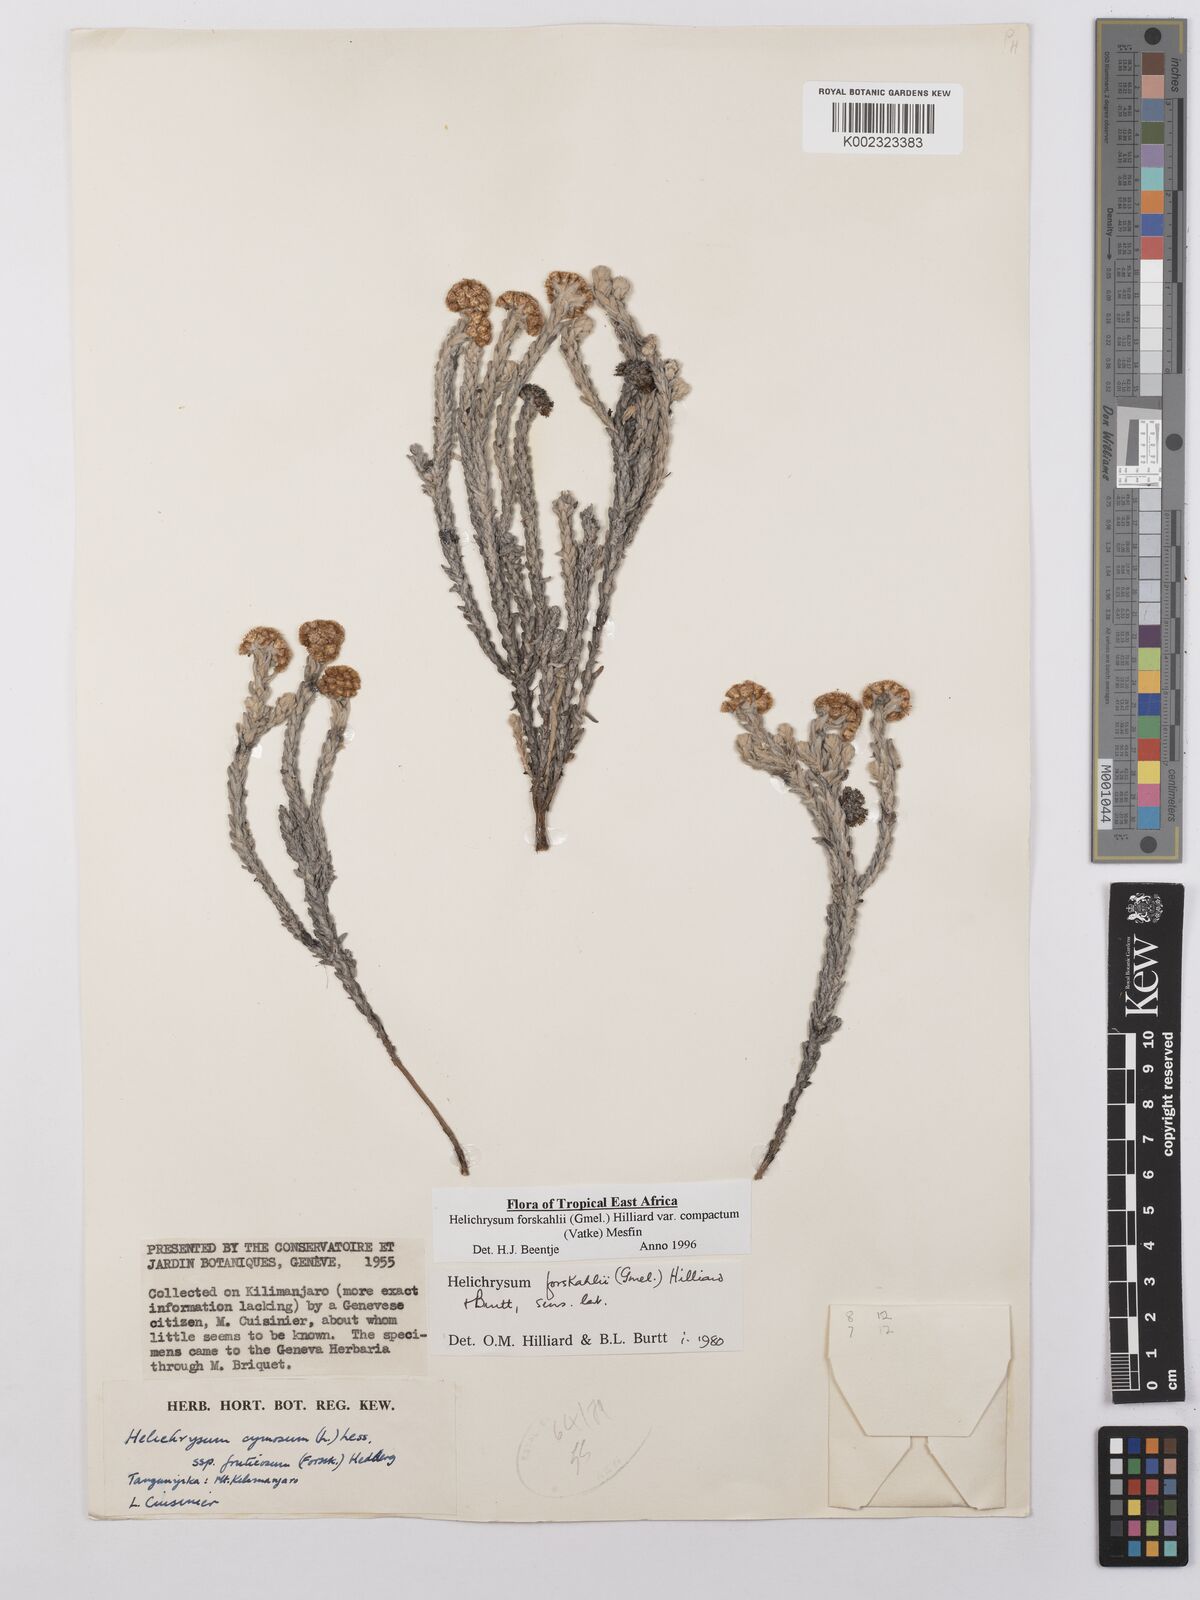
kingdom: Plantae
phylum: Tracheophyta
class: Magnoliopsida
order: Asterales
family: Asteraceae
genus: Helichrysum
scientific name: Helichrysum forskahlii
